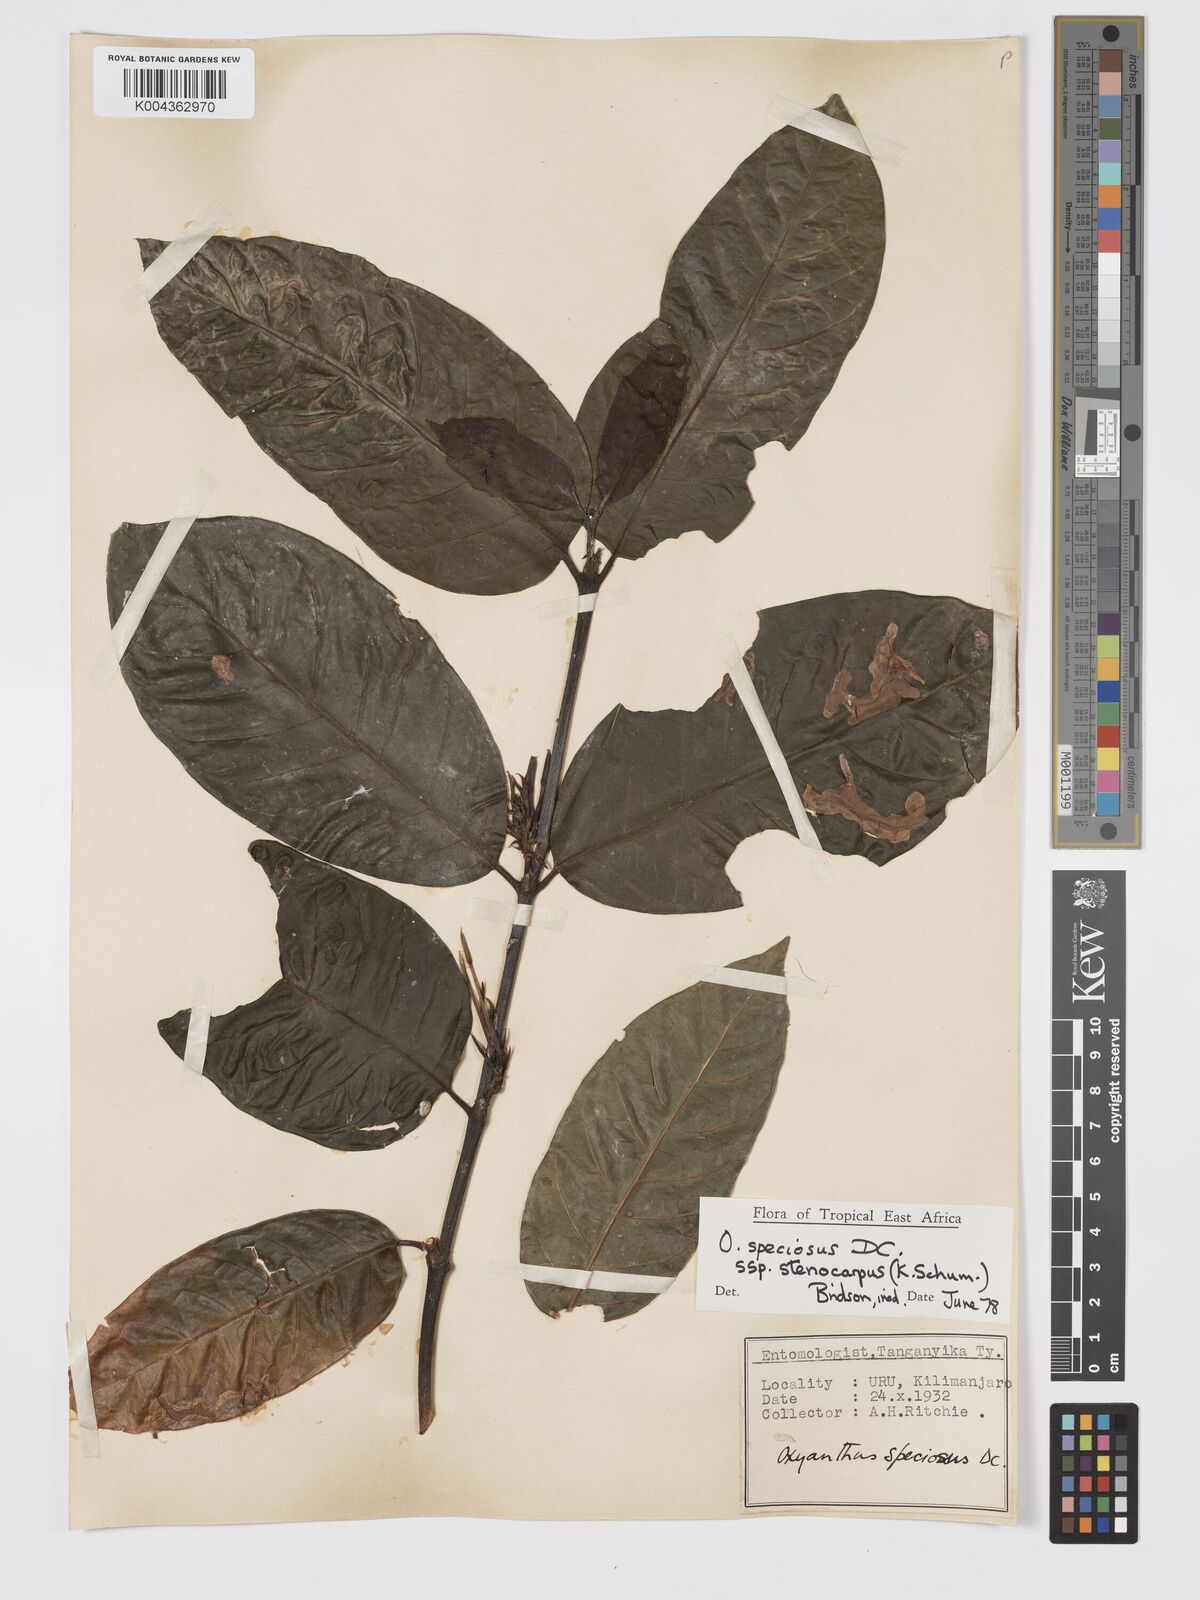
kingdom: Plantae
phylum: Tracheophyta
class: Magnoliopsida
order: Gentianales
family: Rubiaceae
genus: Oxyanthus
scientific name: Oxyanthus speciosus
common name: Whipstick loquat
